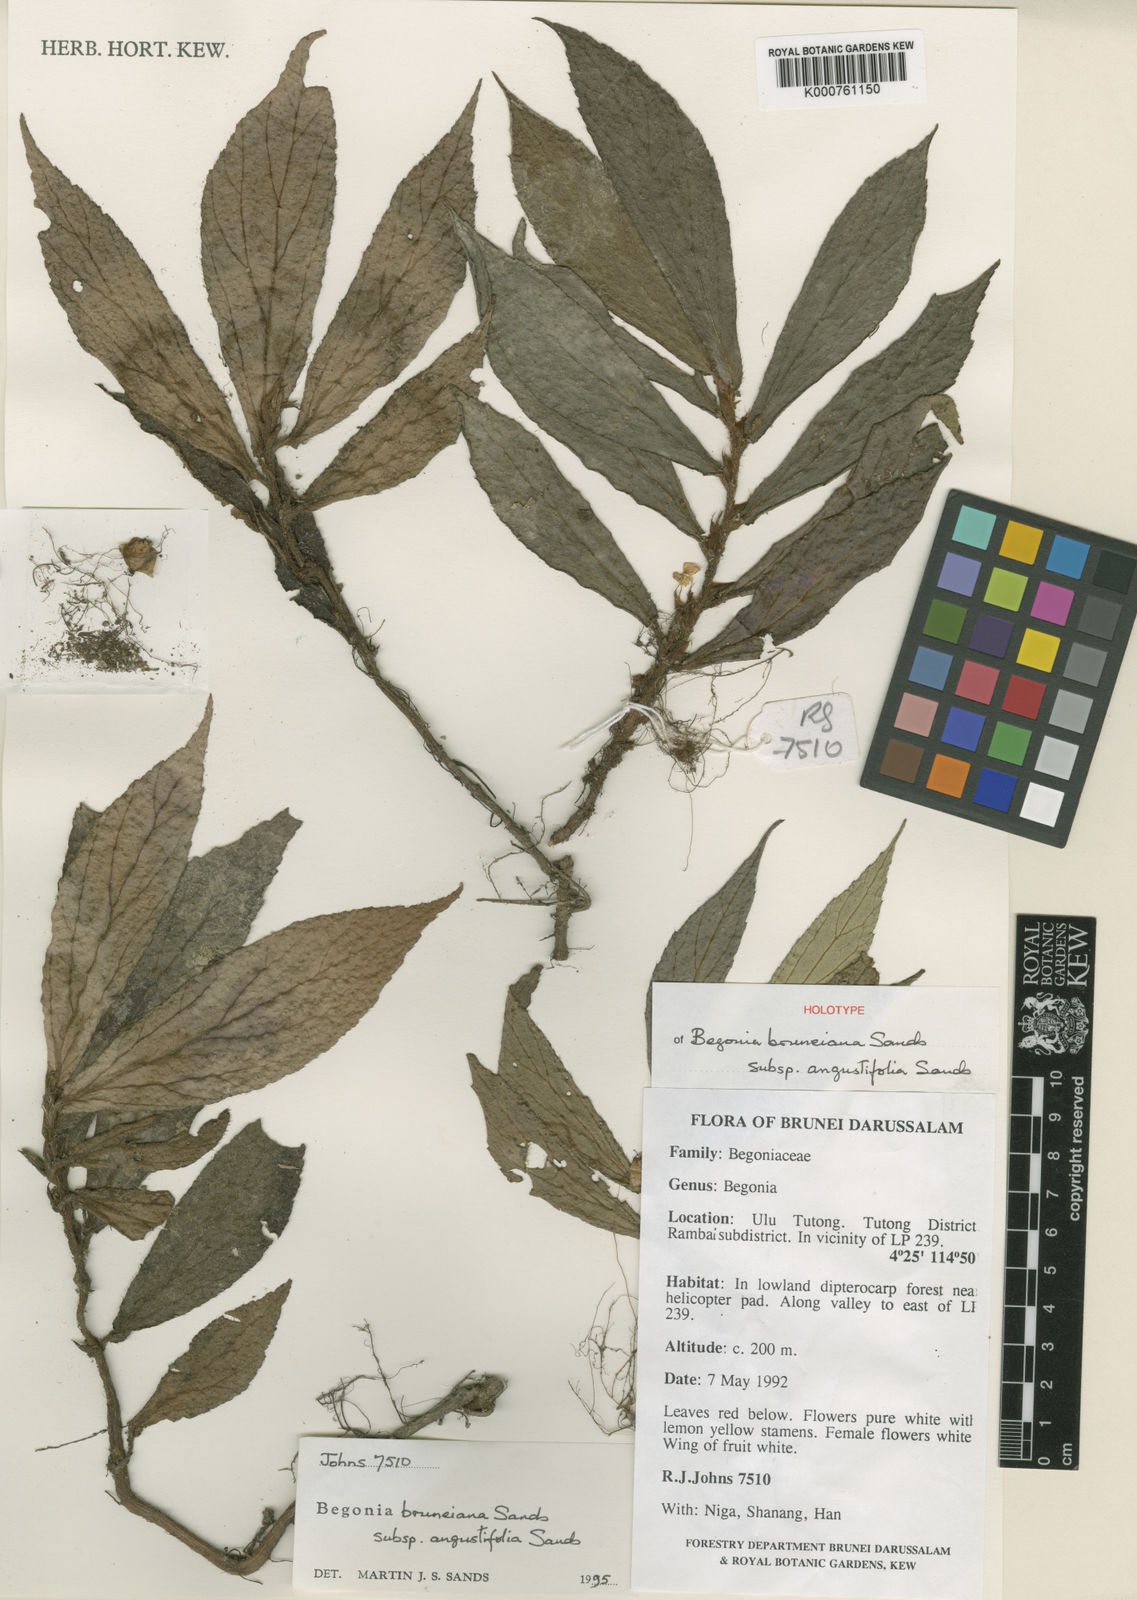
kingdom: Plantae
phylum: Tracheophyta
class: Magnoliopsida
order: Cucurbitales
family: Begoniaceae
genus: Begonia
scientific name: Begonia
